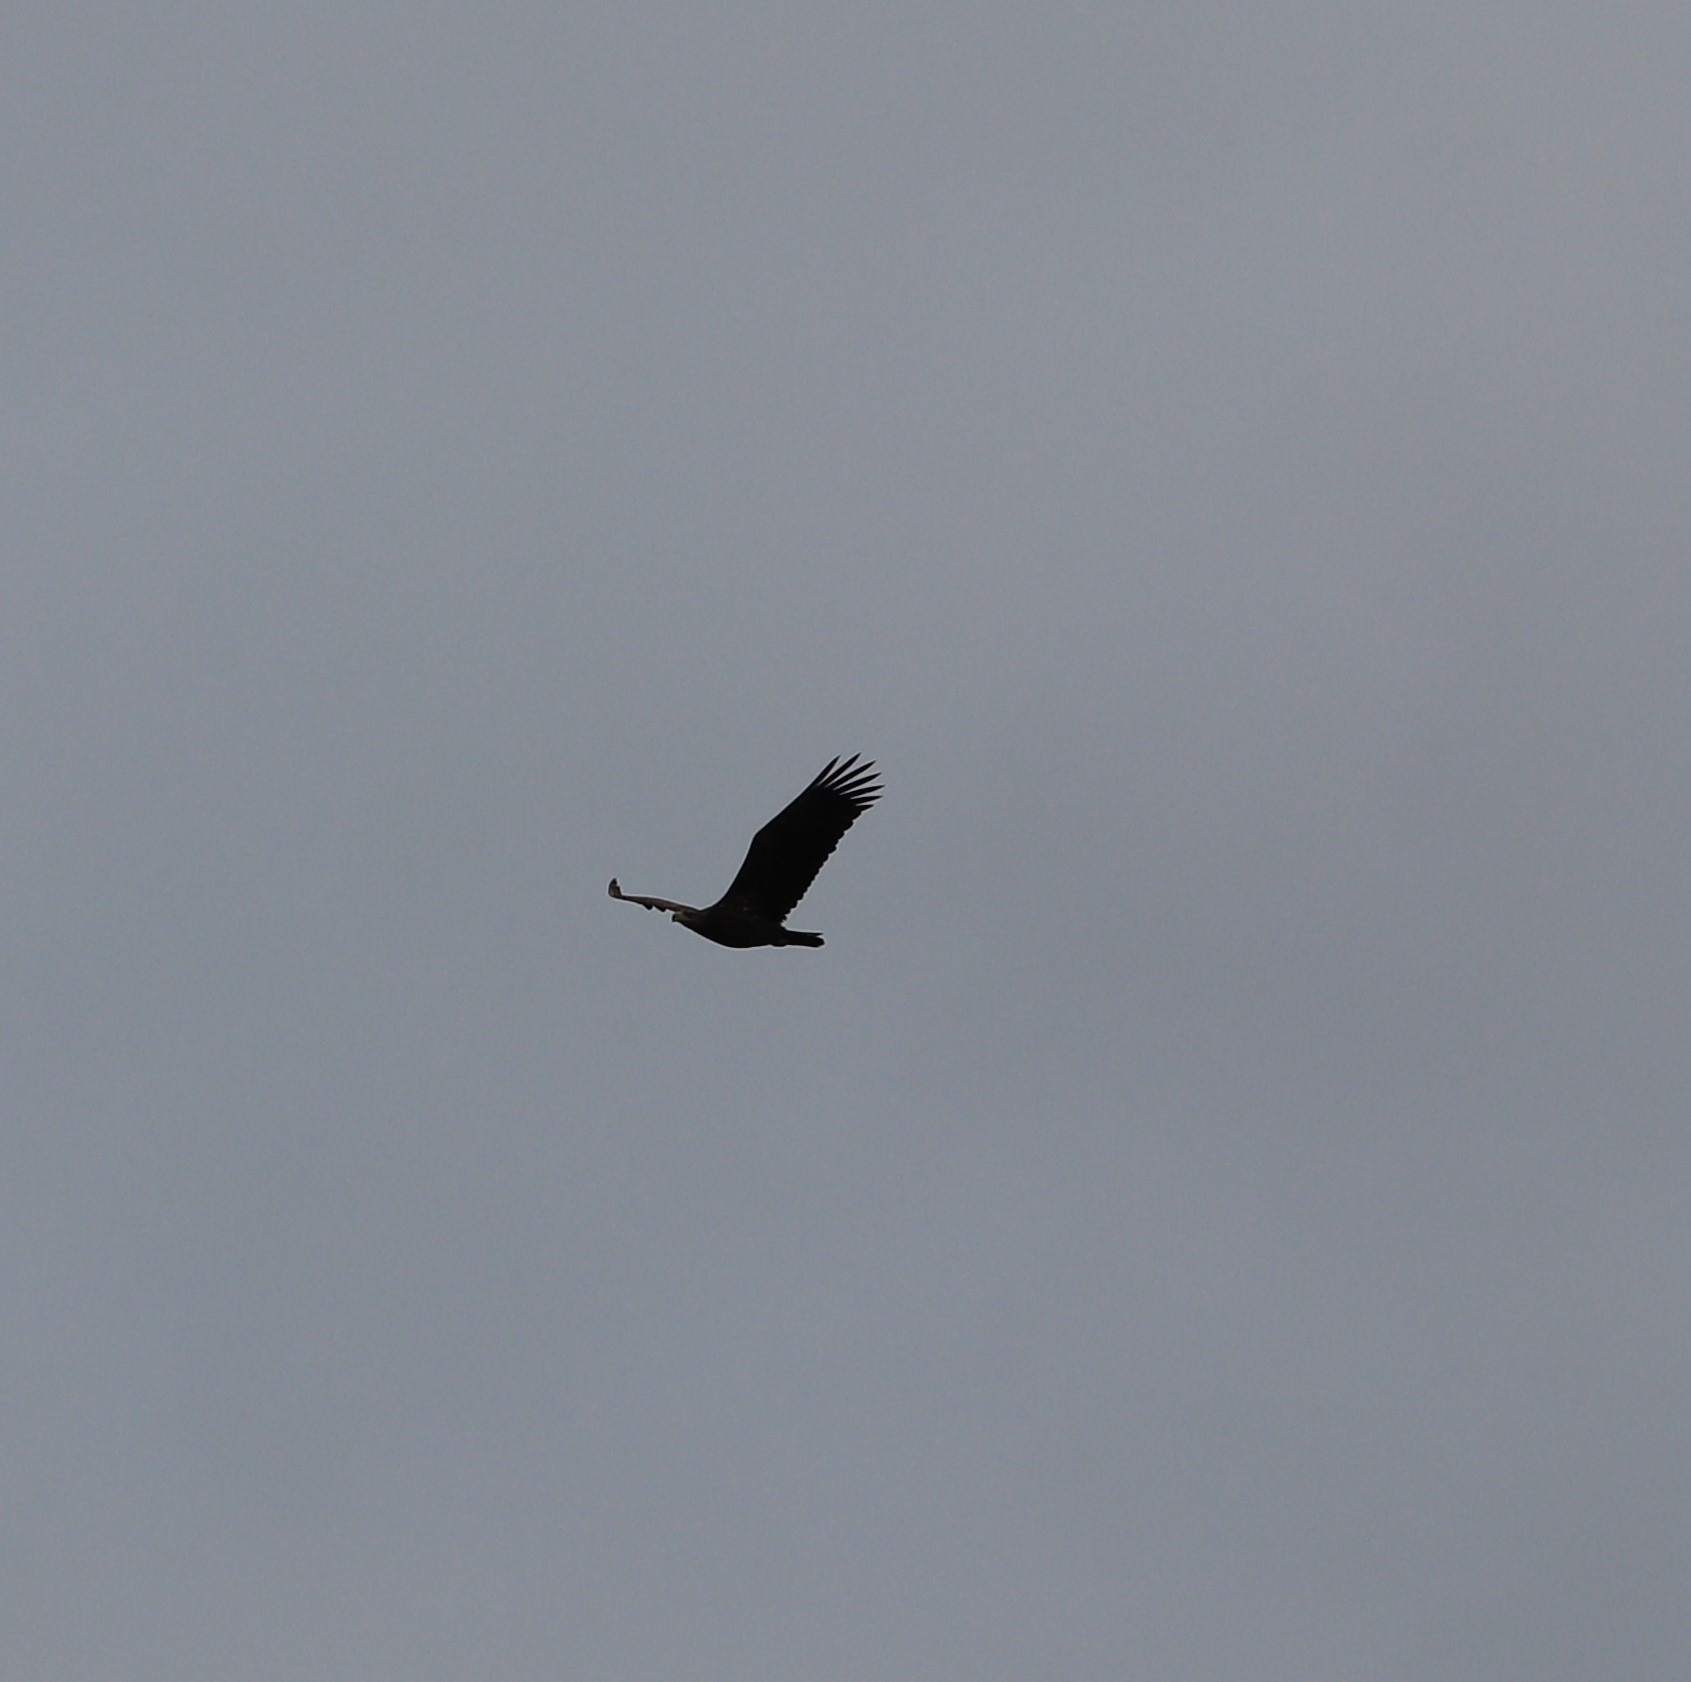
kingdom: Animalia
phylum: Chordata
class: Aves
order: Accipitriformes
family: Accipitridae
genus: Haliaeetus
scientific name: Haliaeetus albicilla
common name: Havørn
